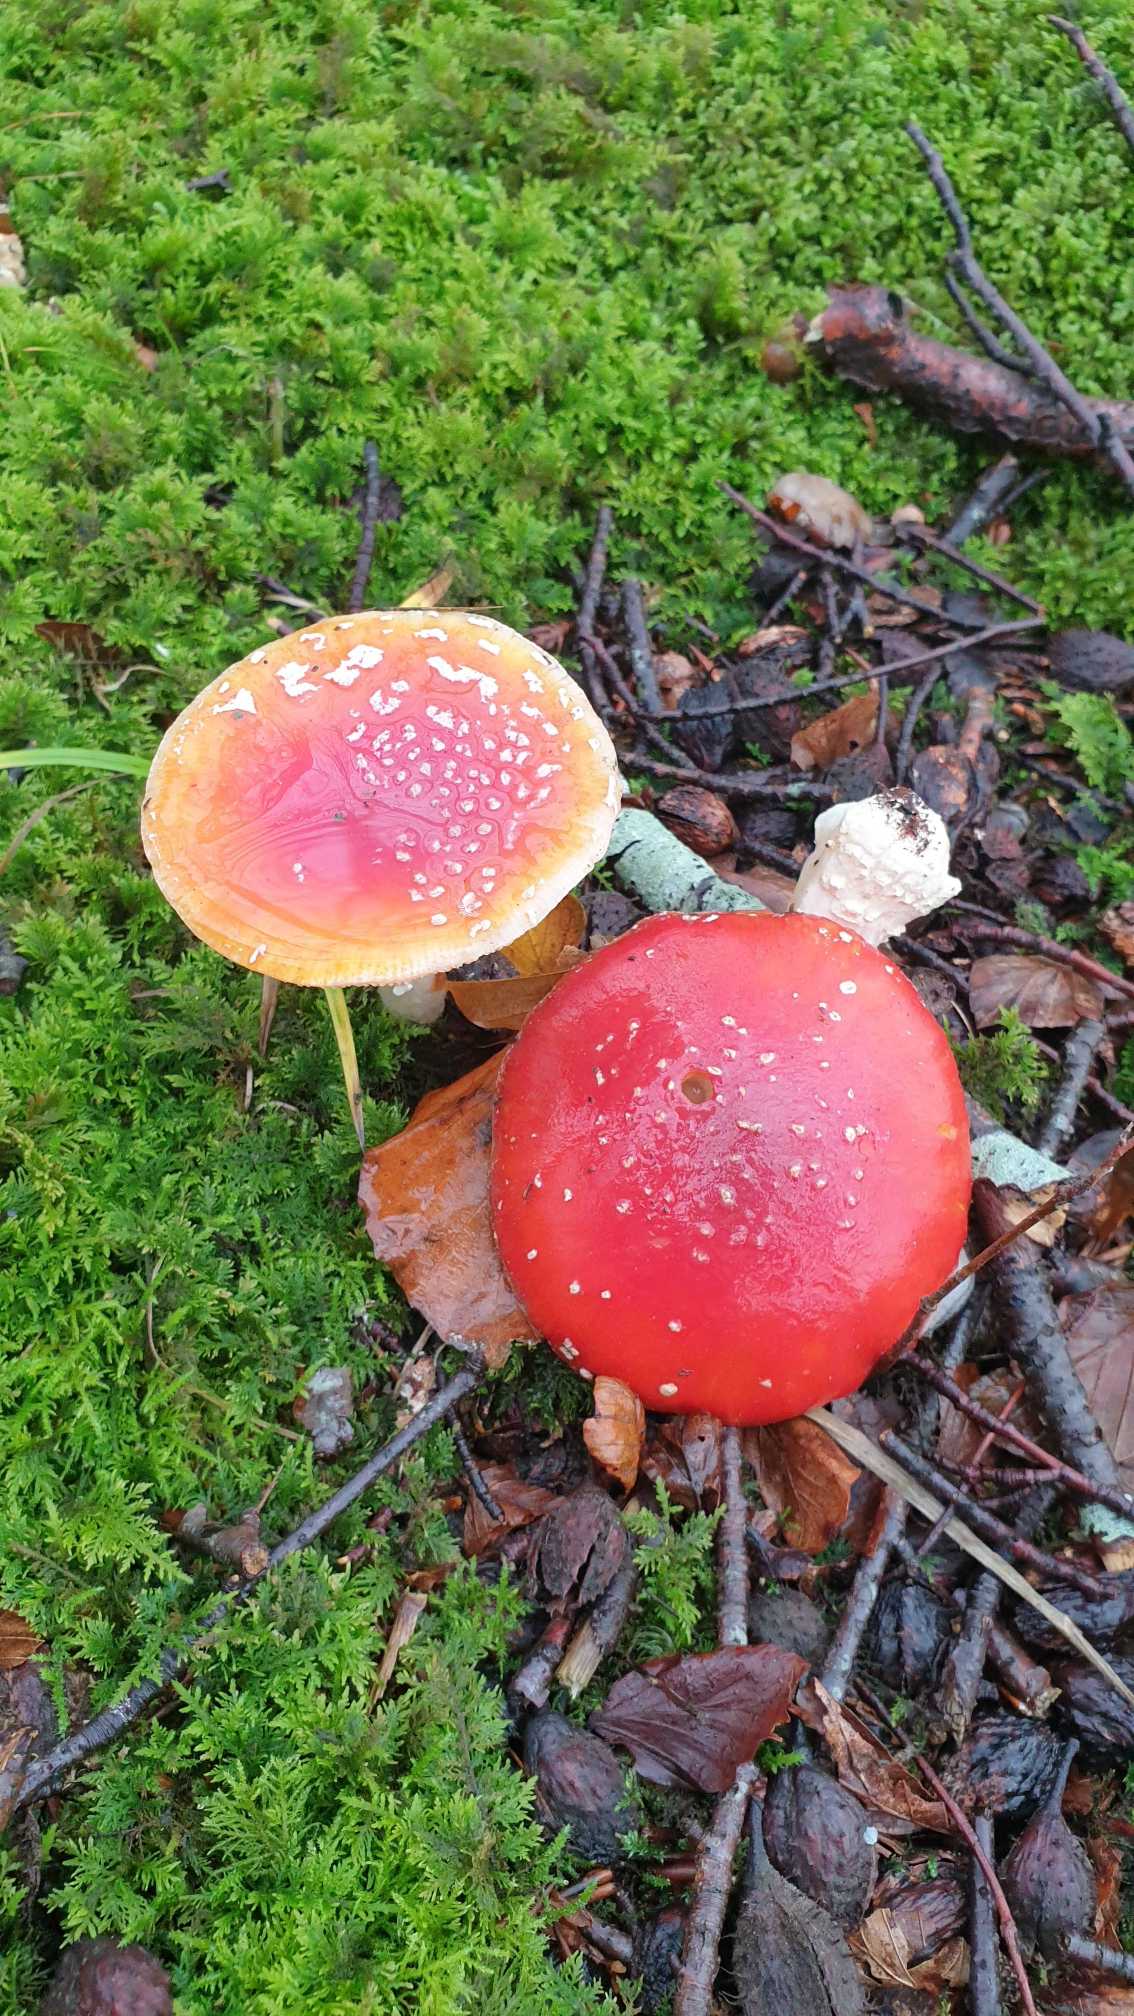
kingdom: Fungi
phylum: Basidiomycota
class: Agaricomycetes
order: Agaricales
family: Amanitaceae
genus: Amanita
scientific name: Amanita muscaria
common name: Rød fluesvamp
